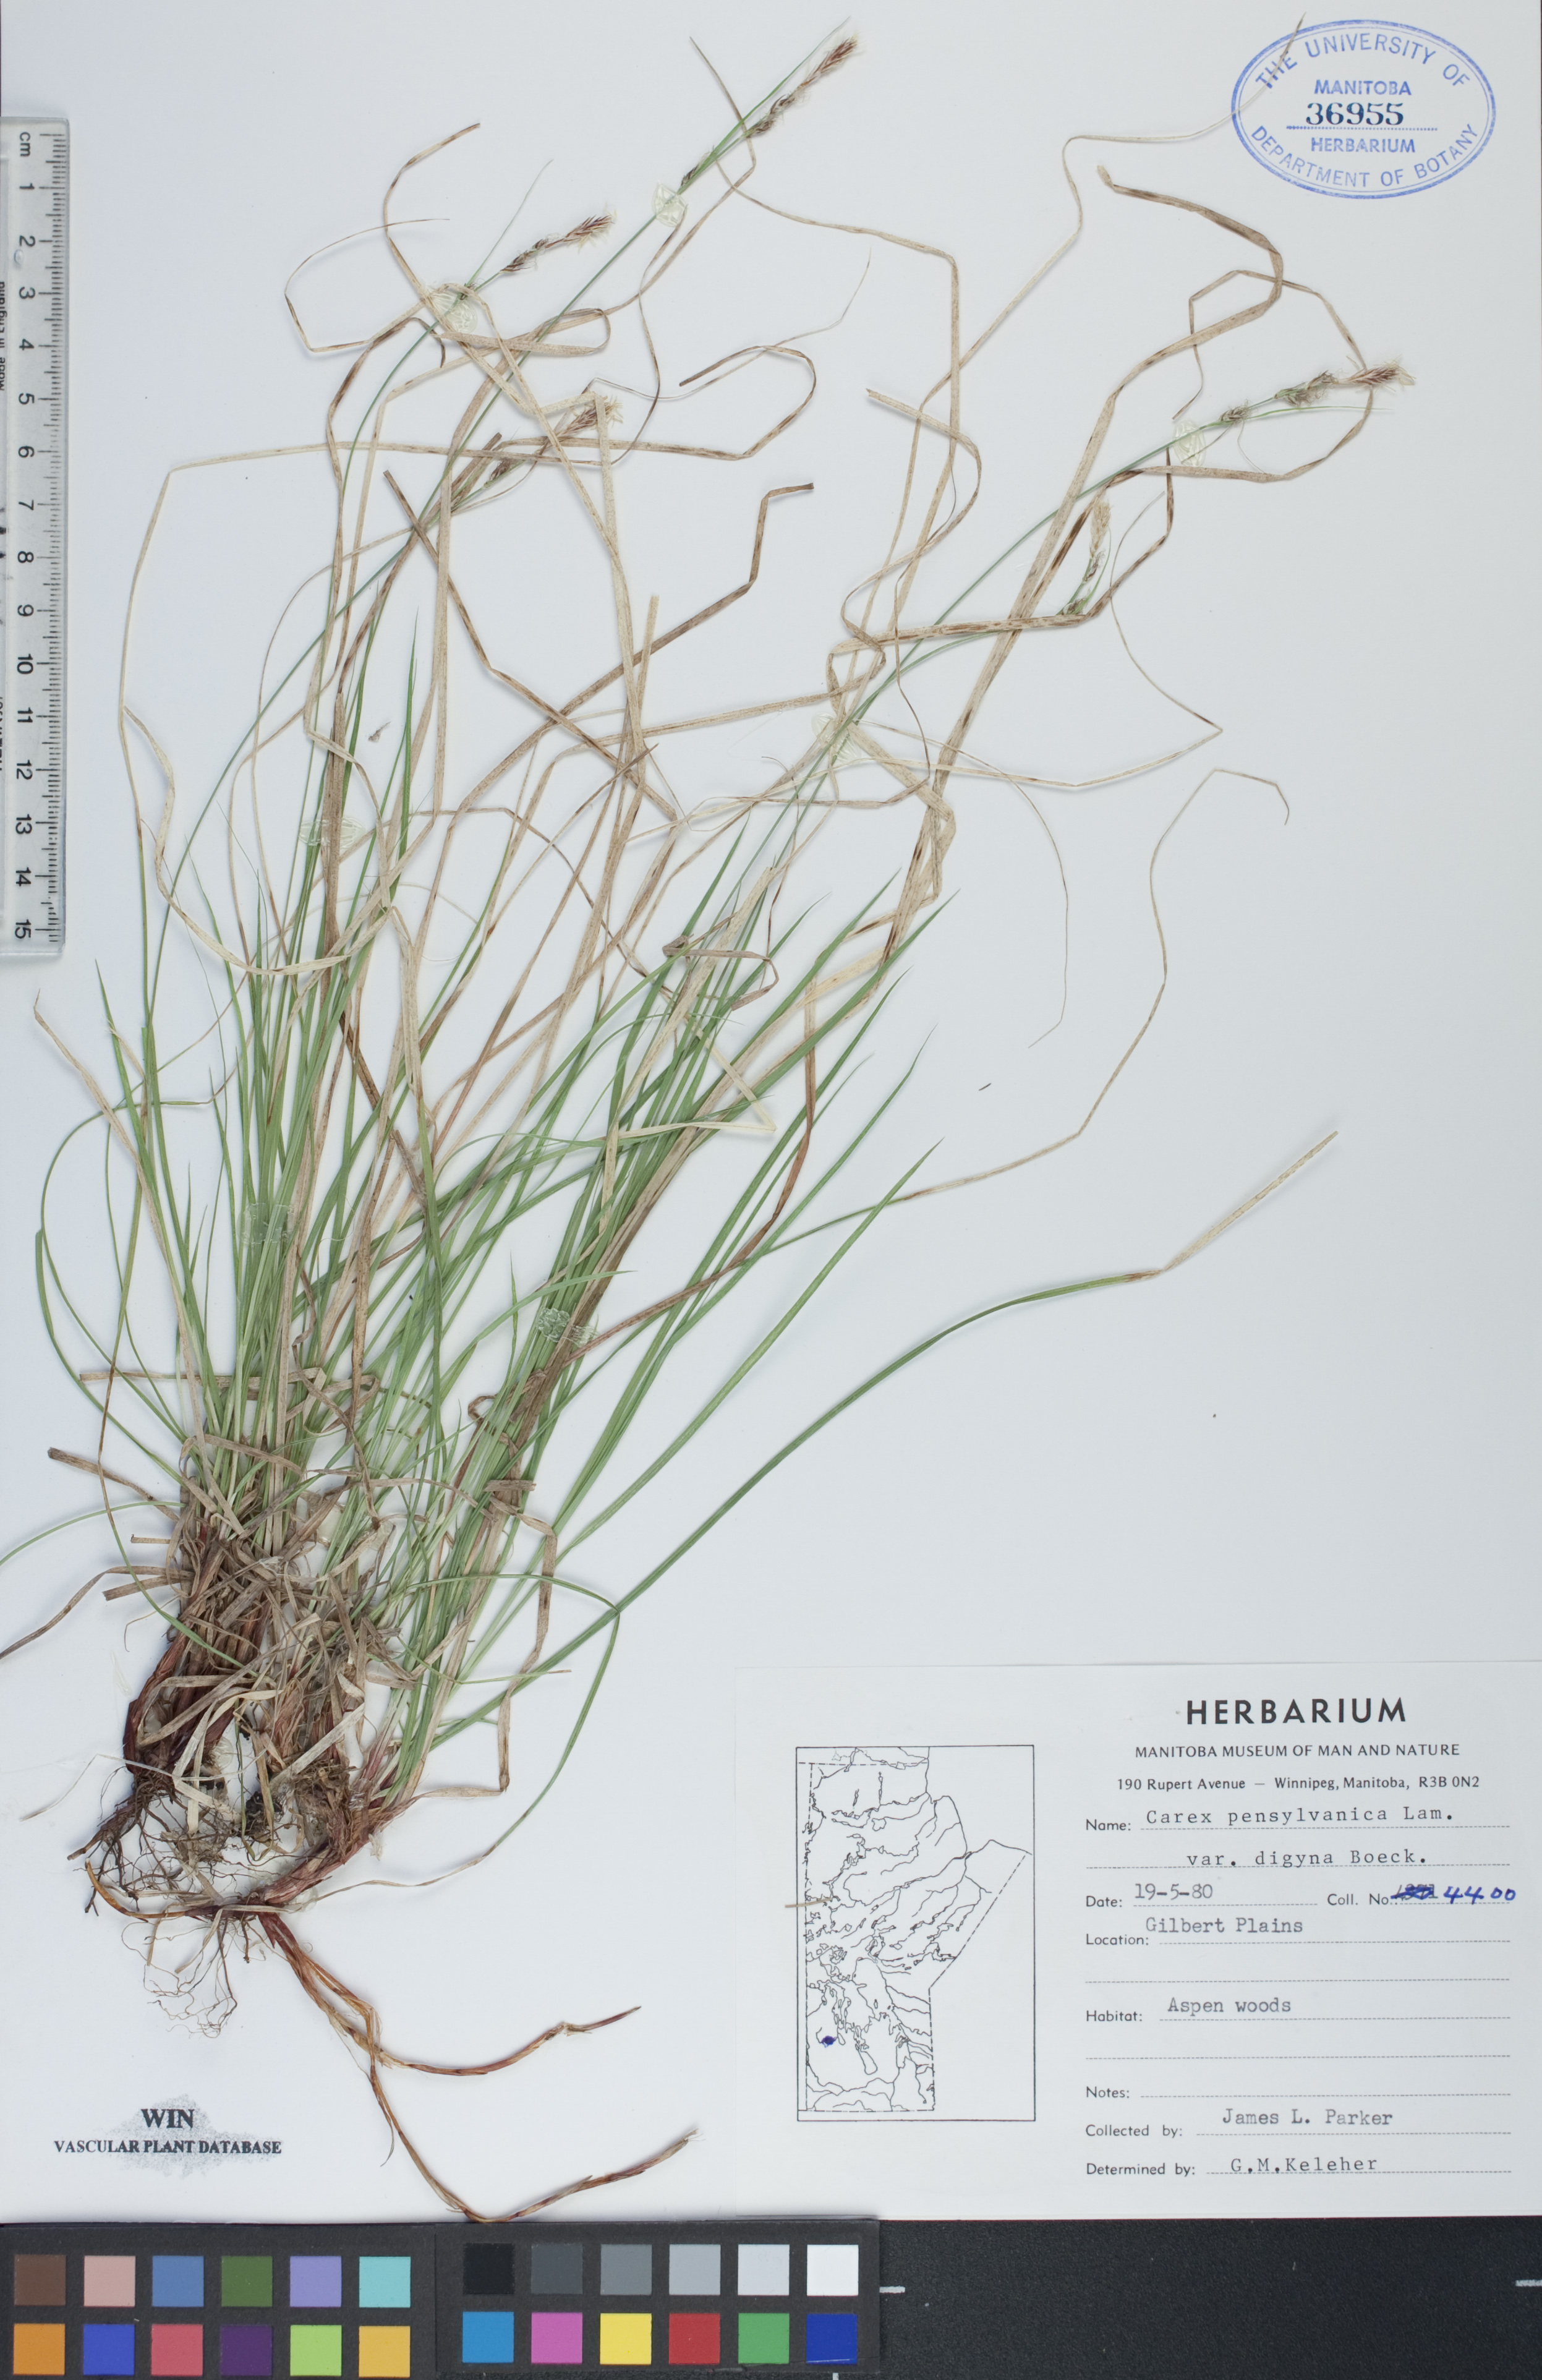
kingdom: Plantae
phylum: Tracheophyta
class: Liliopsida
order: Poales
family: Cyperaceae
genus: Carex
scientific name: Carex pensylvanica
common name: Common oak sedge
